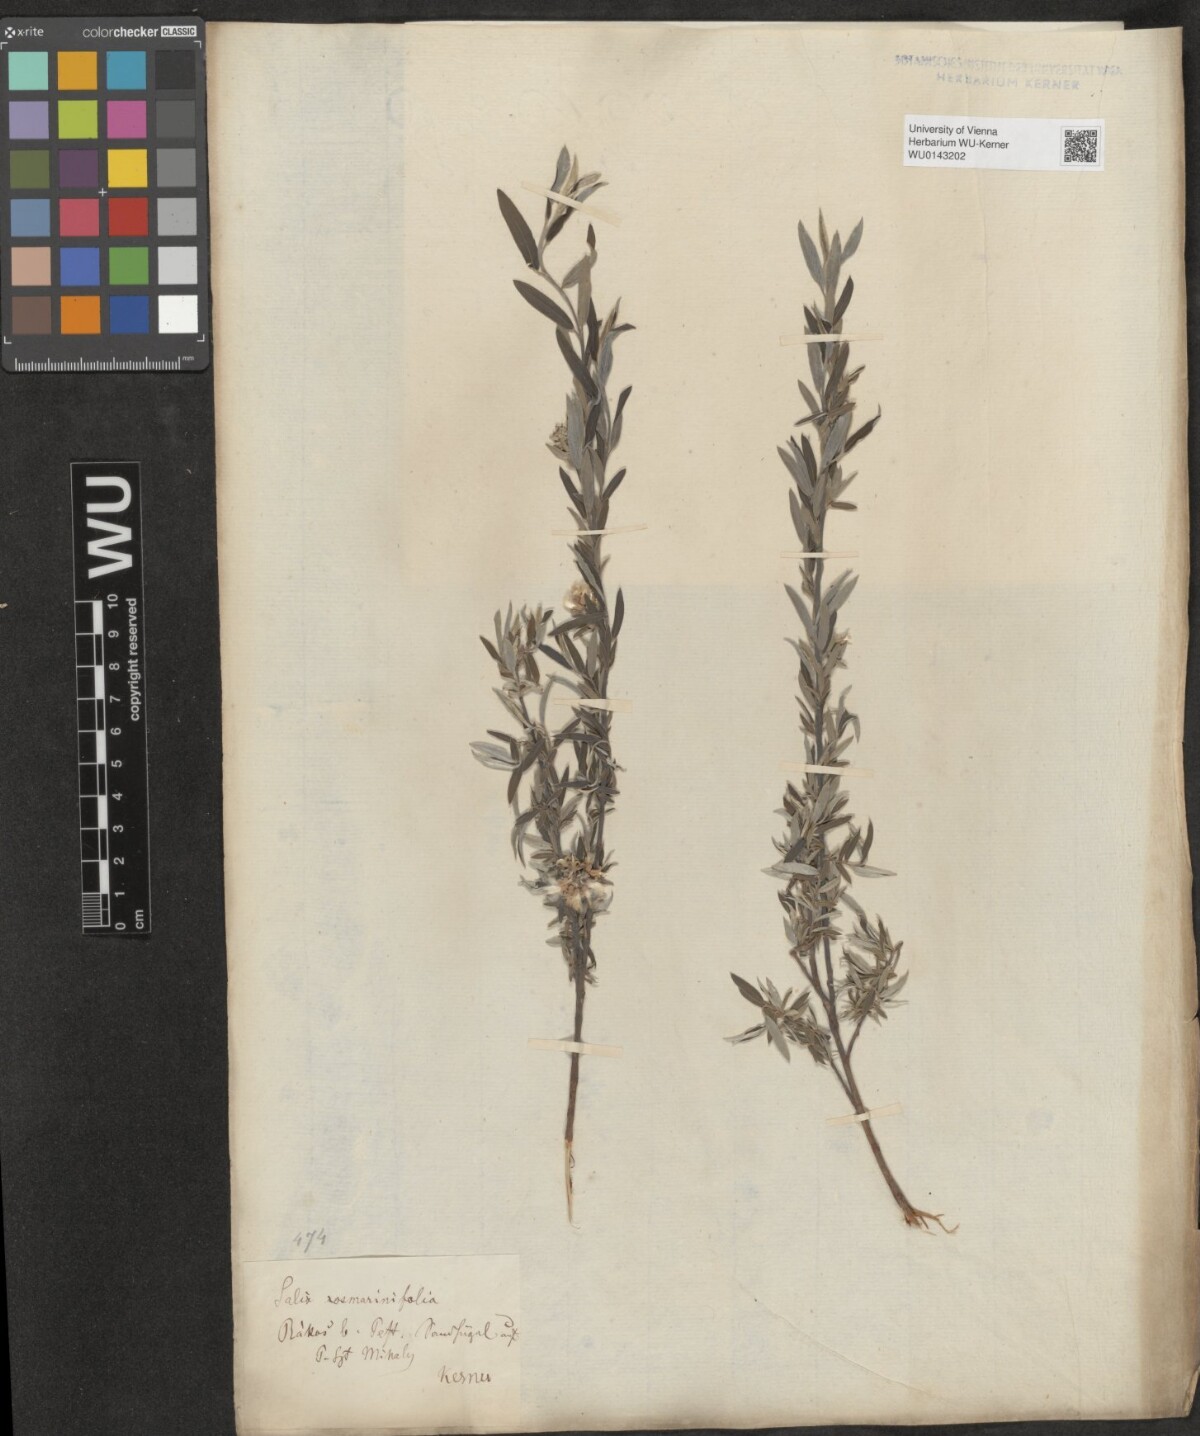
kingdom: Plantae
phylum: Tracheophyta
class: Magnoliopsida
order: Malpighiales
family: Salicaceae
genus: Salix
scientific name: Salix repens
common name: Creeping willow
